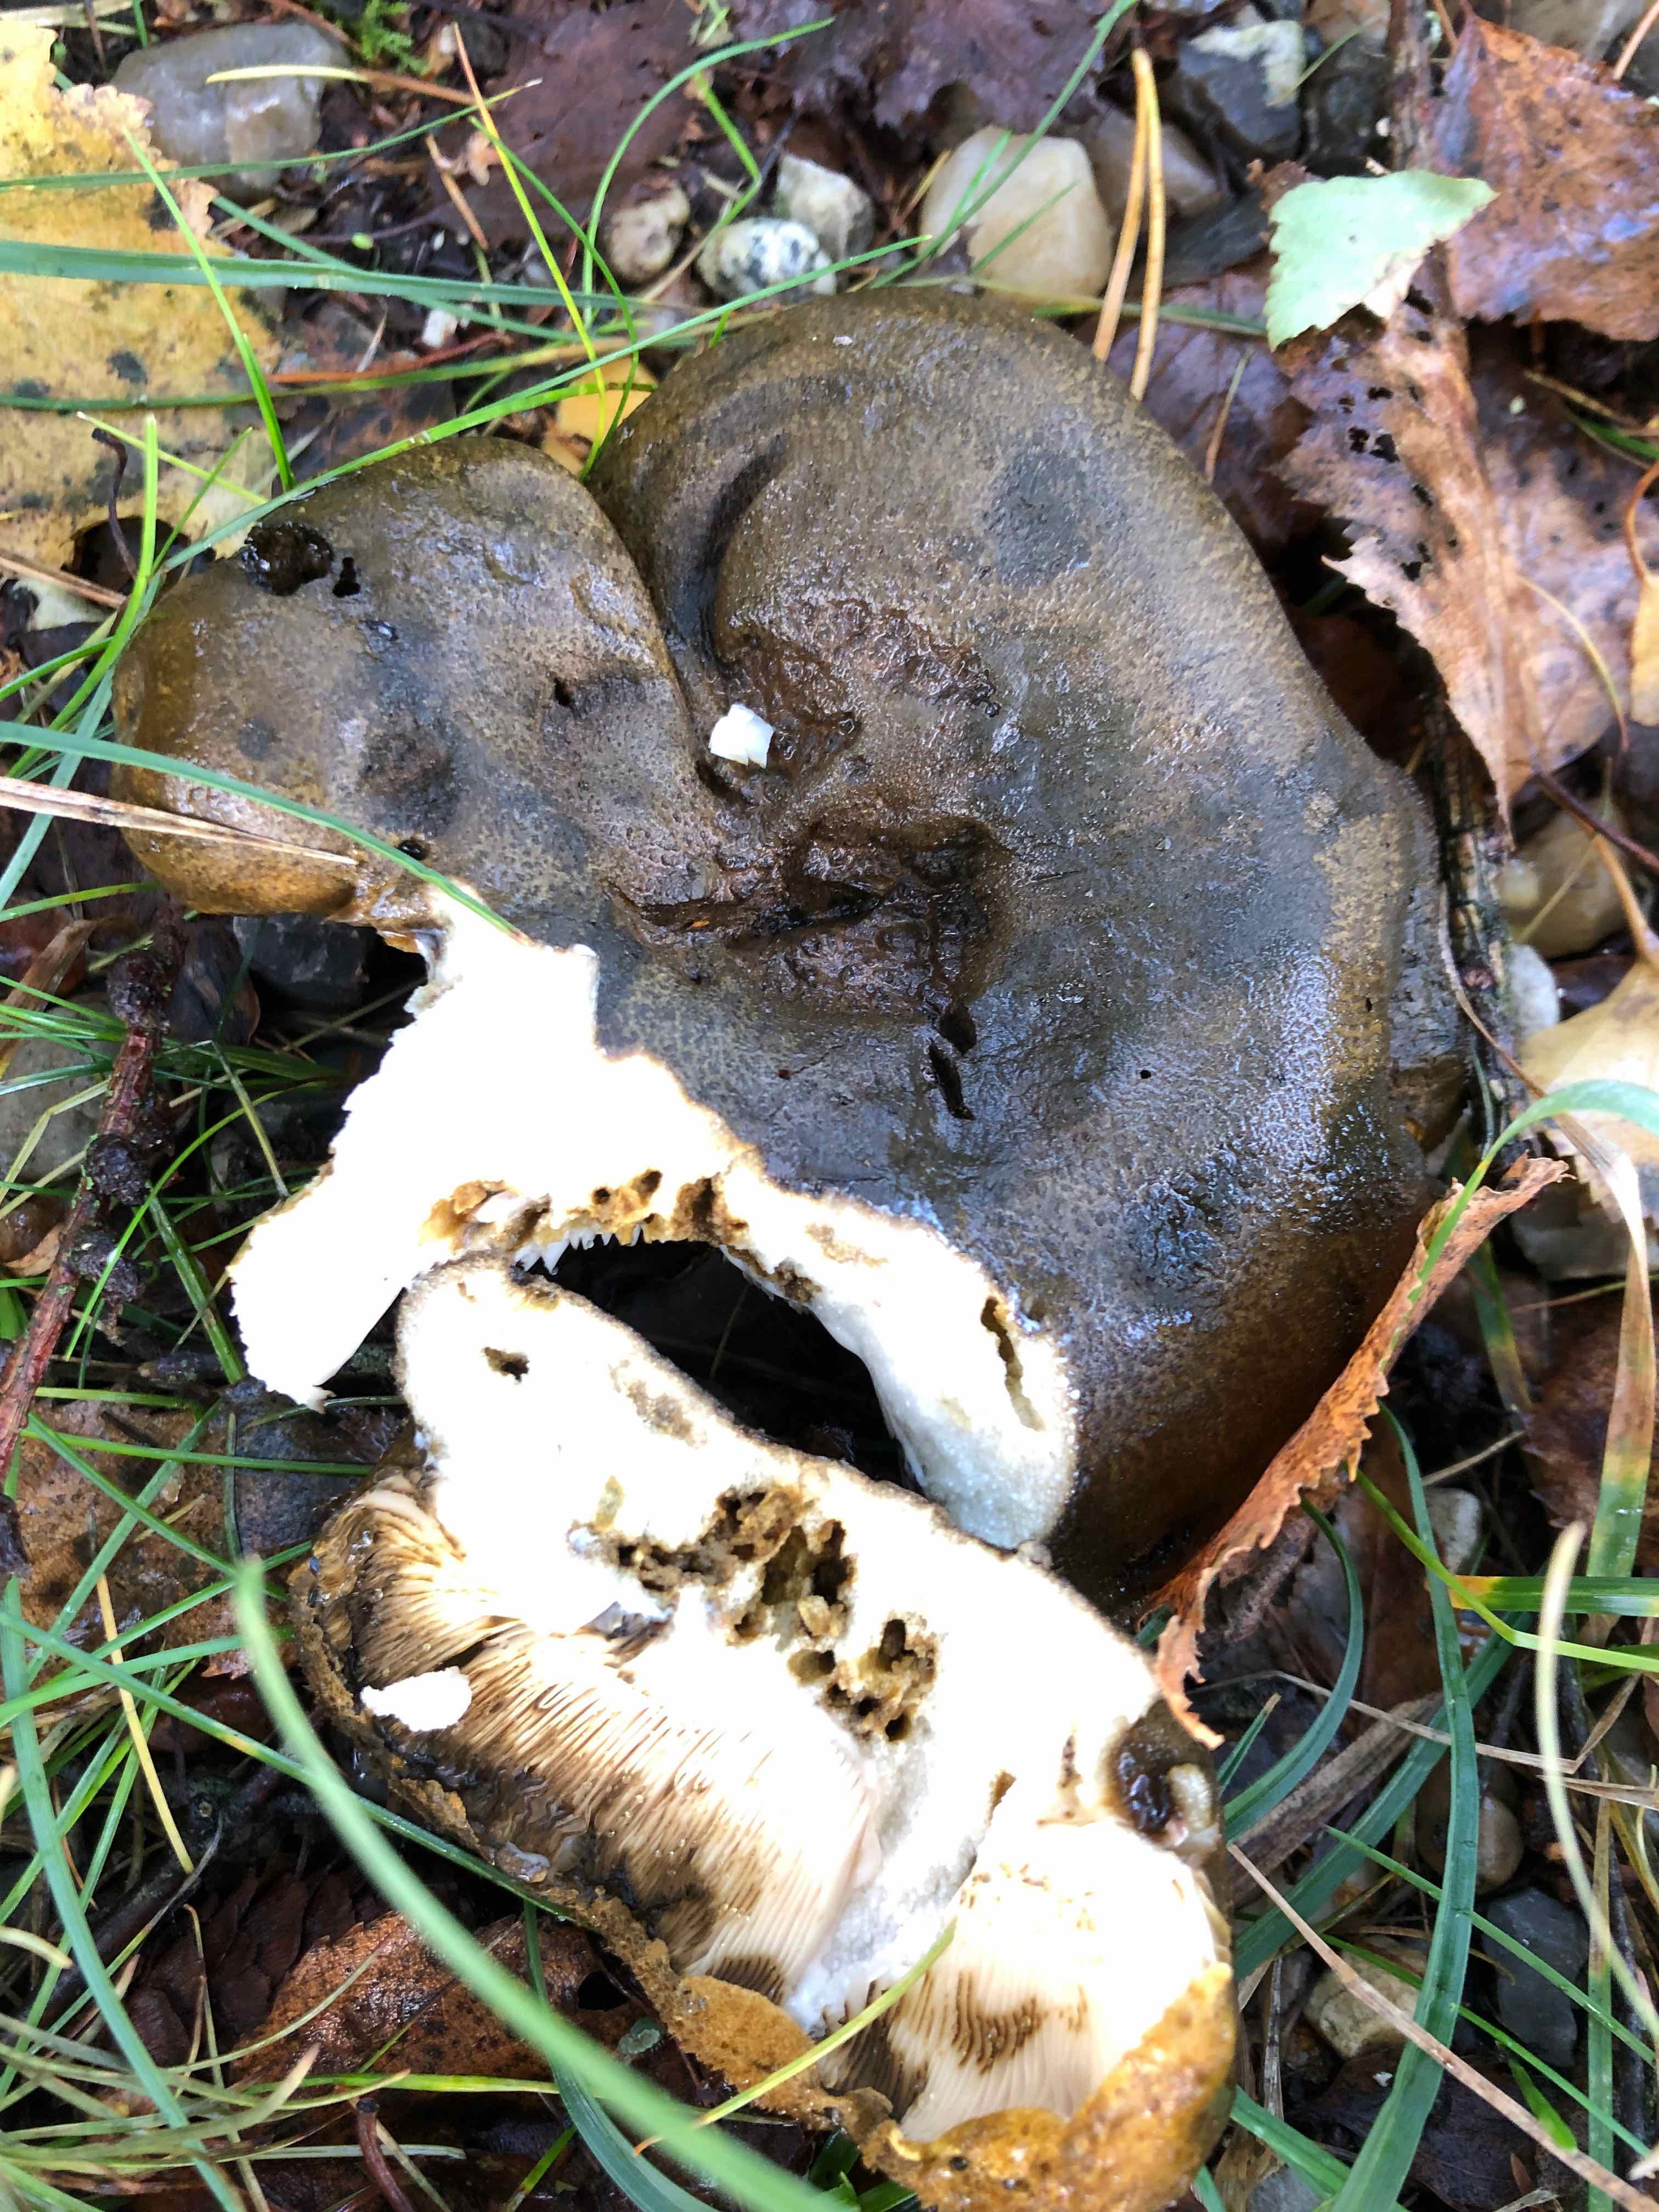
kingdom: Fungi
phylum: Basidiomycota
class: Agaricomycetes
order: Russulales
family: Russulaceae
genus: Lactarius
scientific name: Lactarius necator
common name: manddraber-mælkehat
